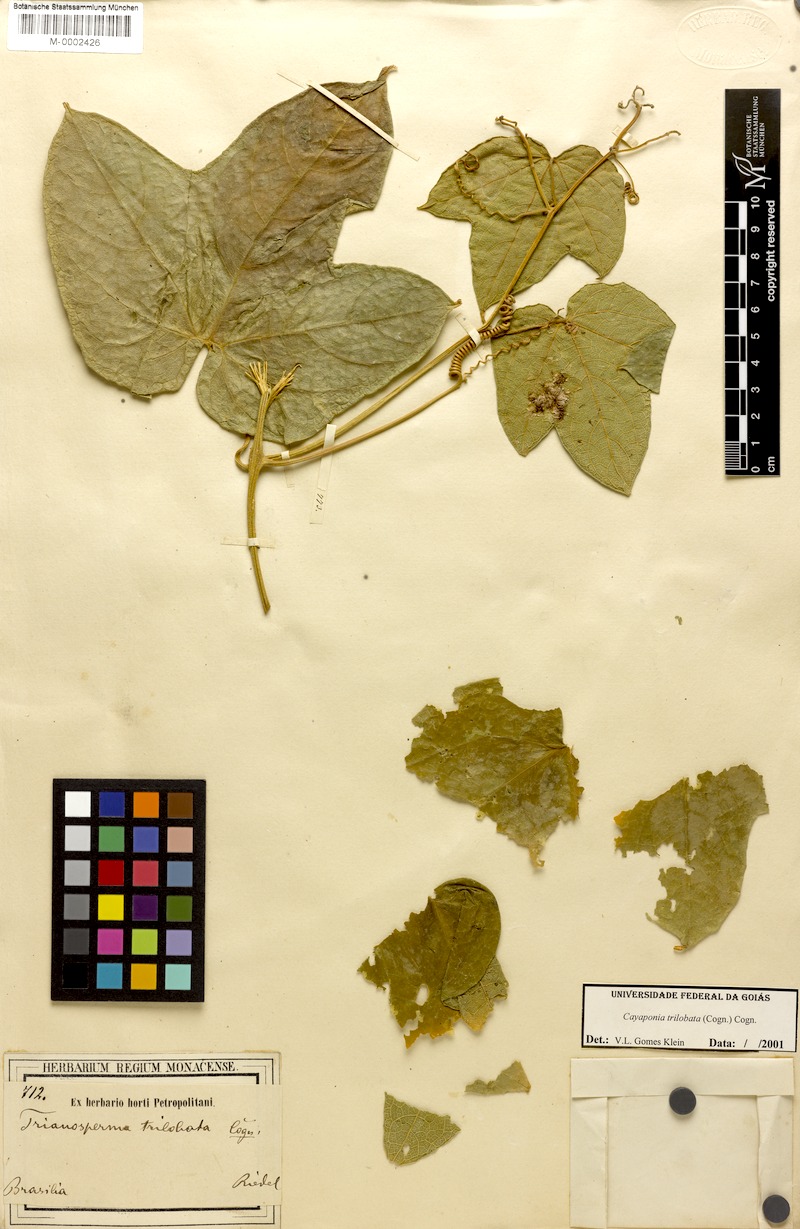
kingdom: Plantae
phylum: Tracheophyta
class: Magnoliopsida
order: Cucurbitales
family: Cucurbitaceae
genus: Cayaponia
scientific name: Cayaponia trilobata
